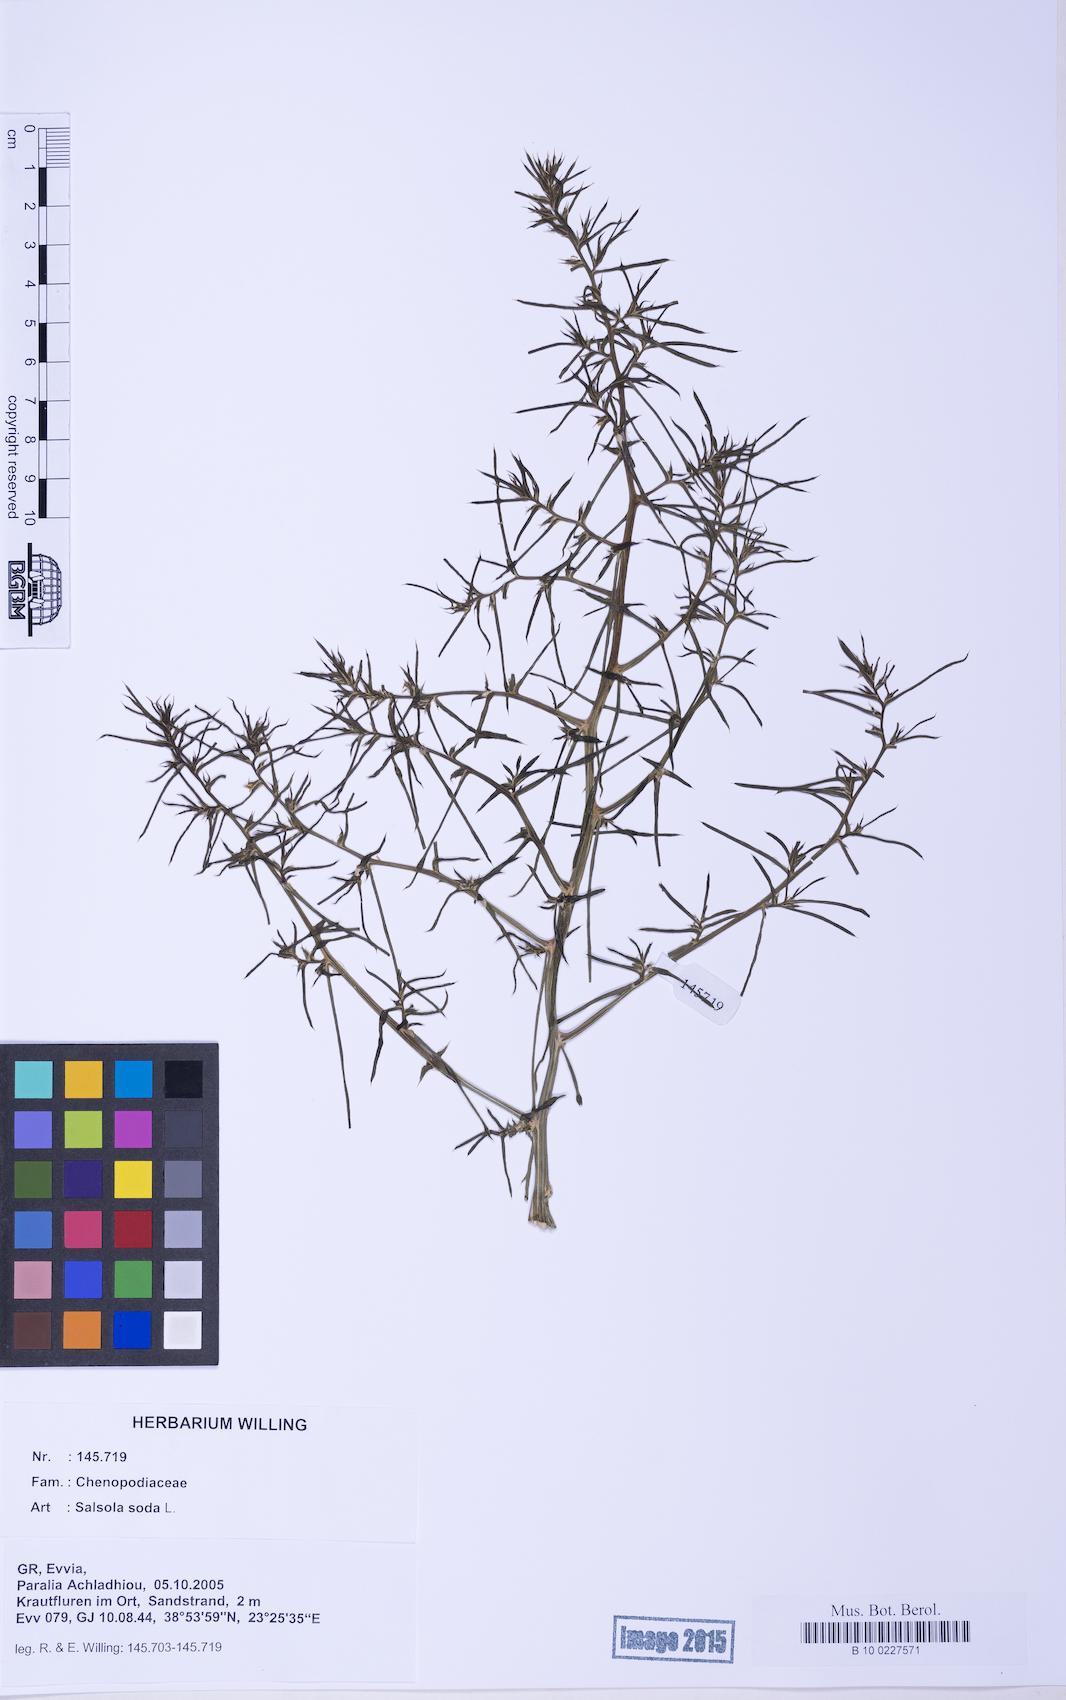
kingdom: Plantae
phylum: Tracheophyta
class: Magnoliopsida
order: Caryophyllales
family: Amaranthaceae
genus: Soda
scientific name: Soda inermis
